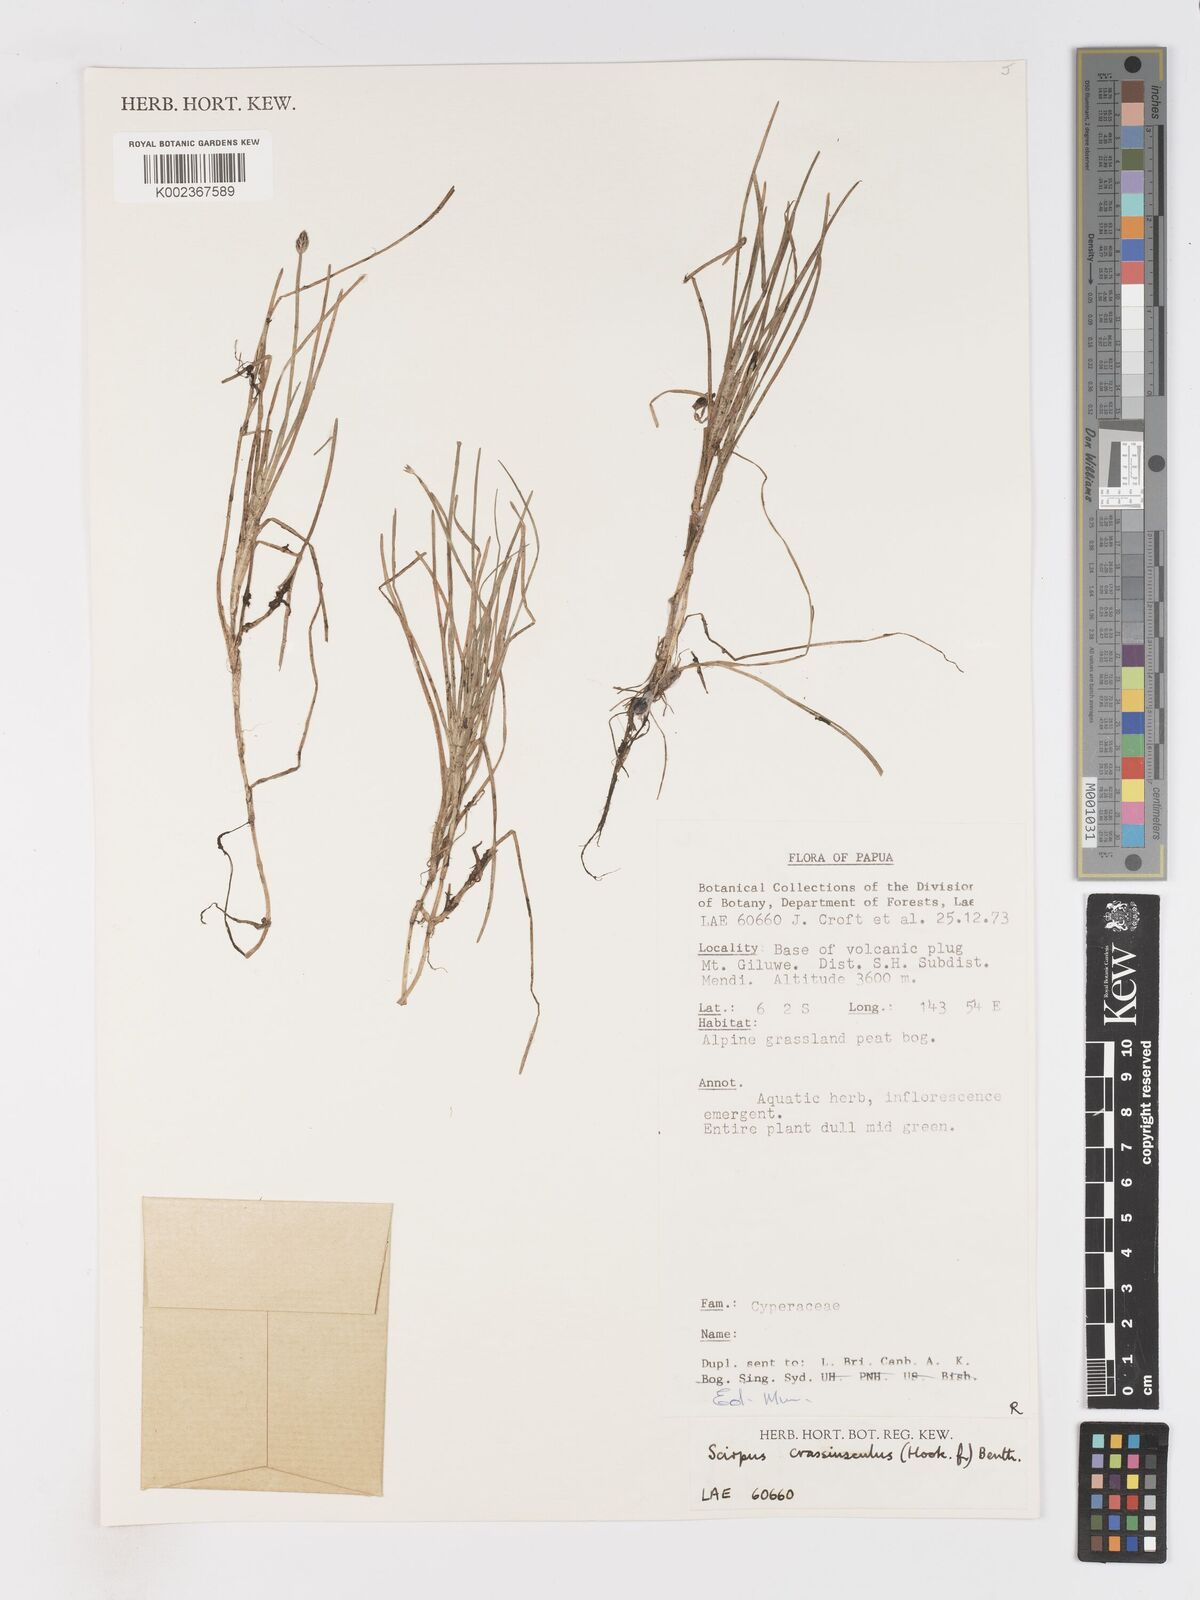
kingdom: Plantae
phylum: Tracheophyta
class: Liliopsida
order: Poales
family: Cyperaceae
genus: Isolepis
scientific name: Isolepis crassiuscula
